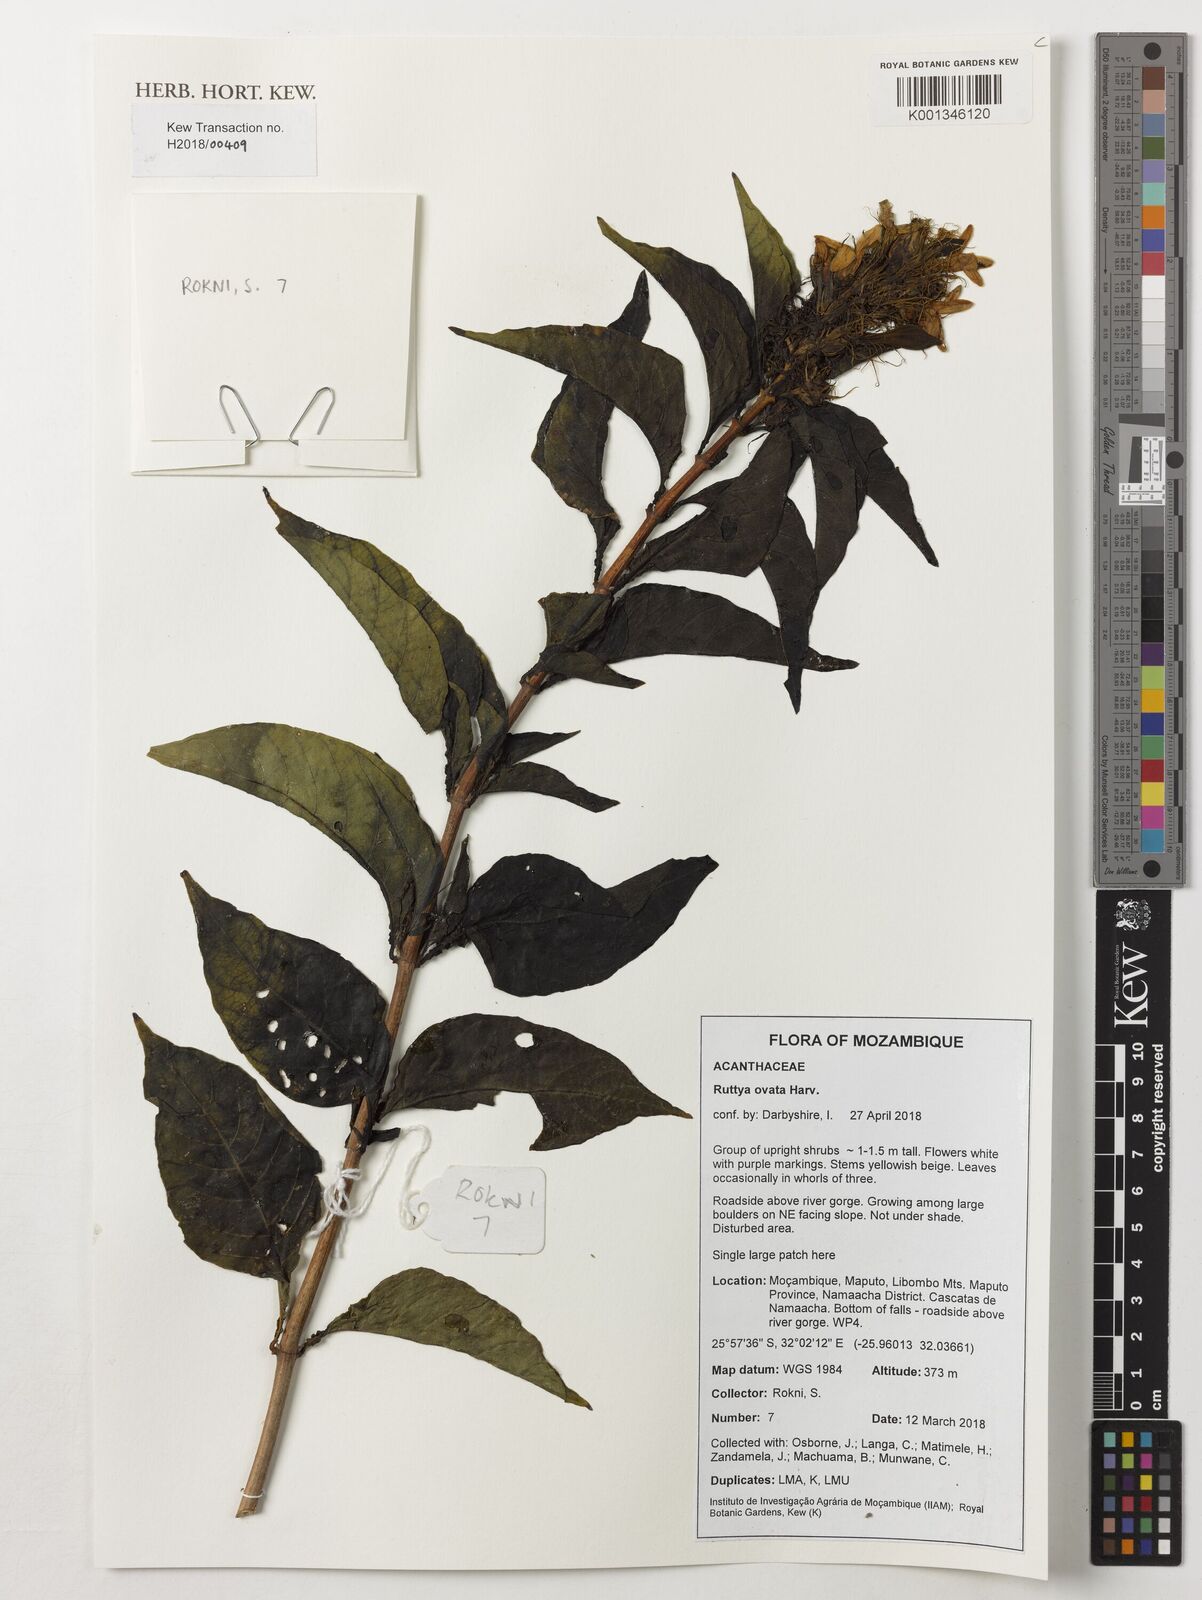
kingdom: Plantae
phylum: Tracheophyta
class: Magnoliopsida
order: Lamiales
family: Acanthaceae
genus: Ruttya
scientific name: Ruttya ovata
